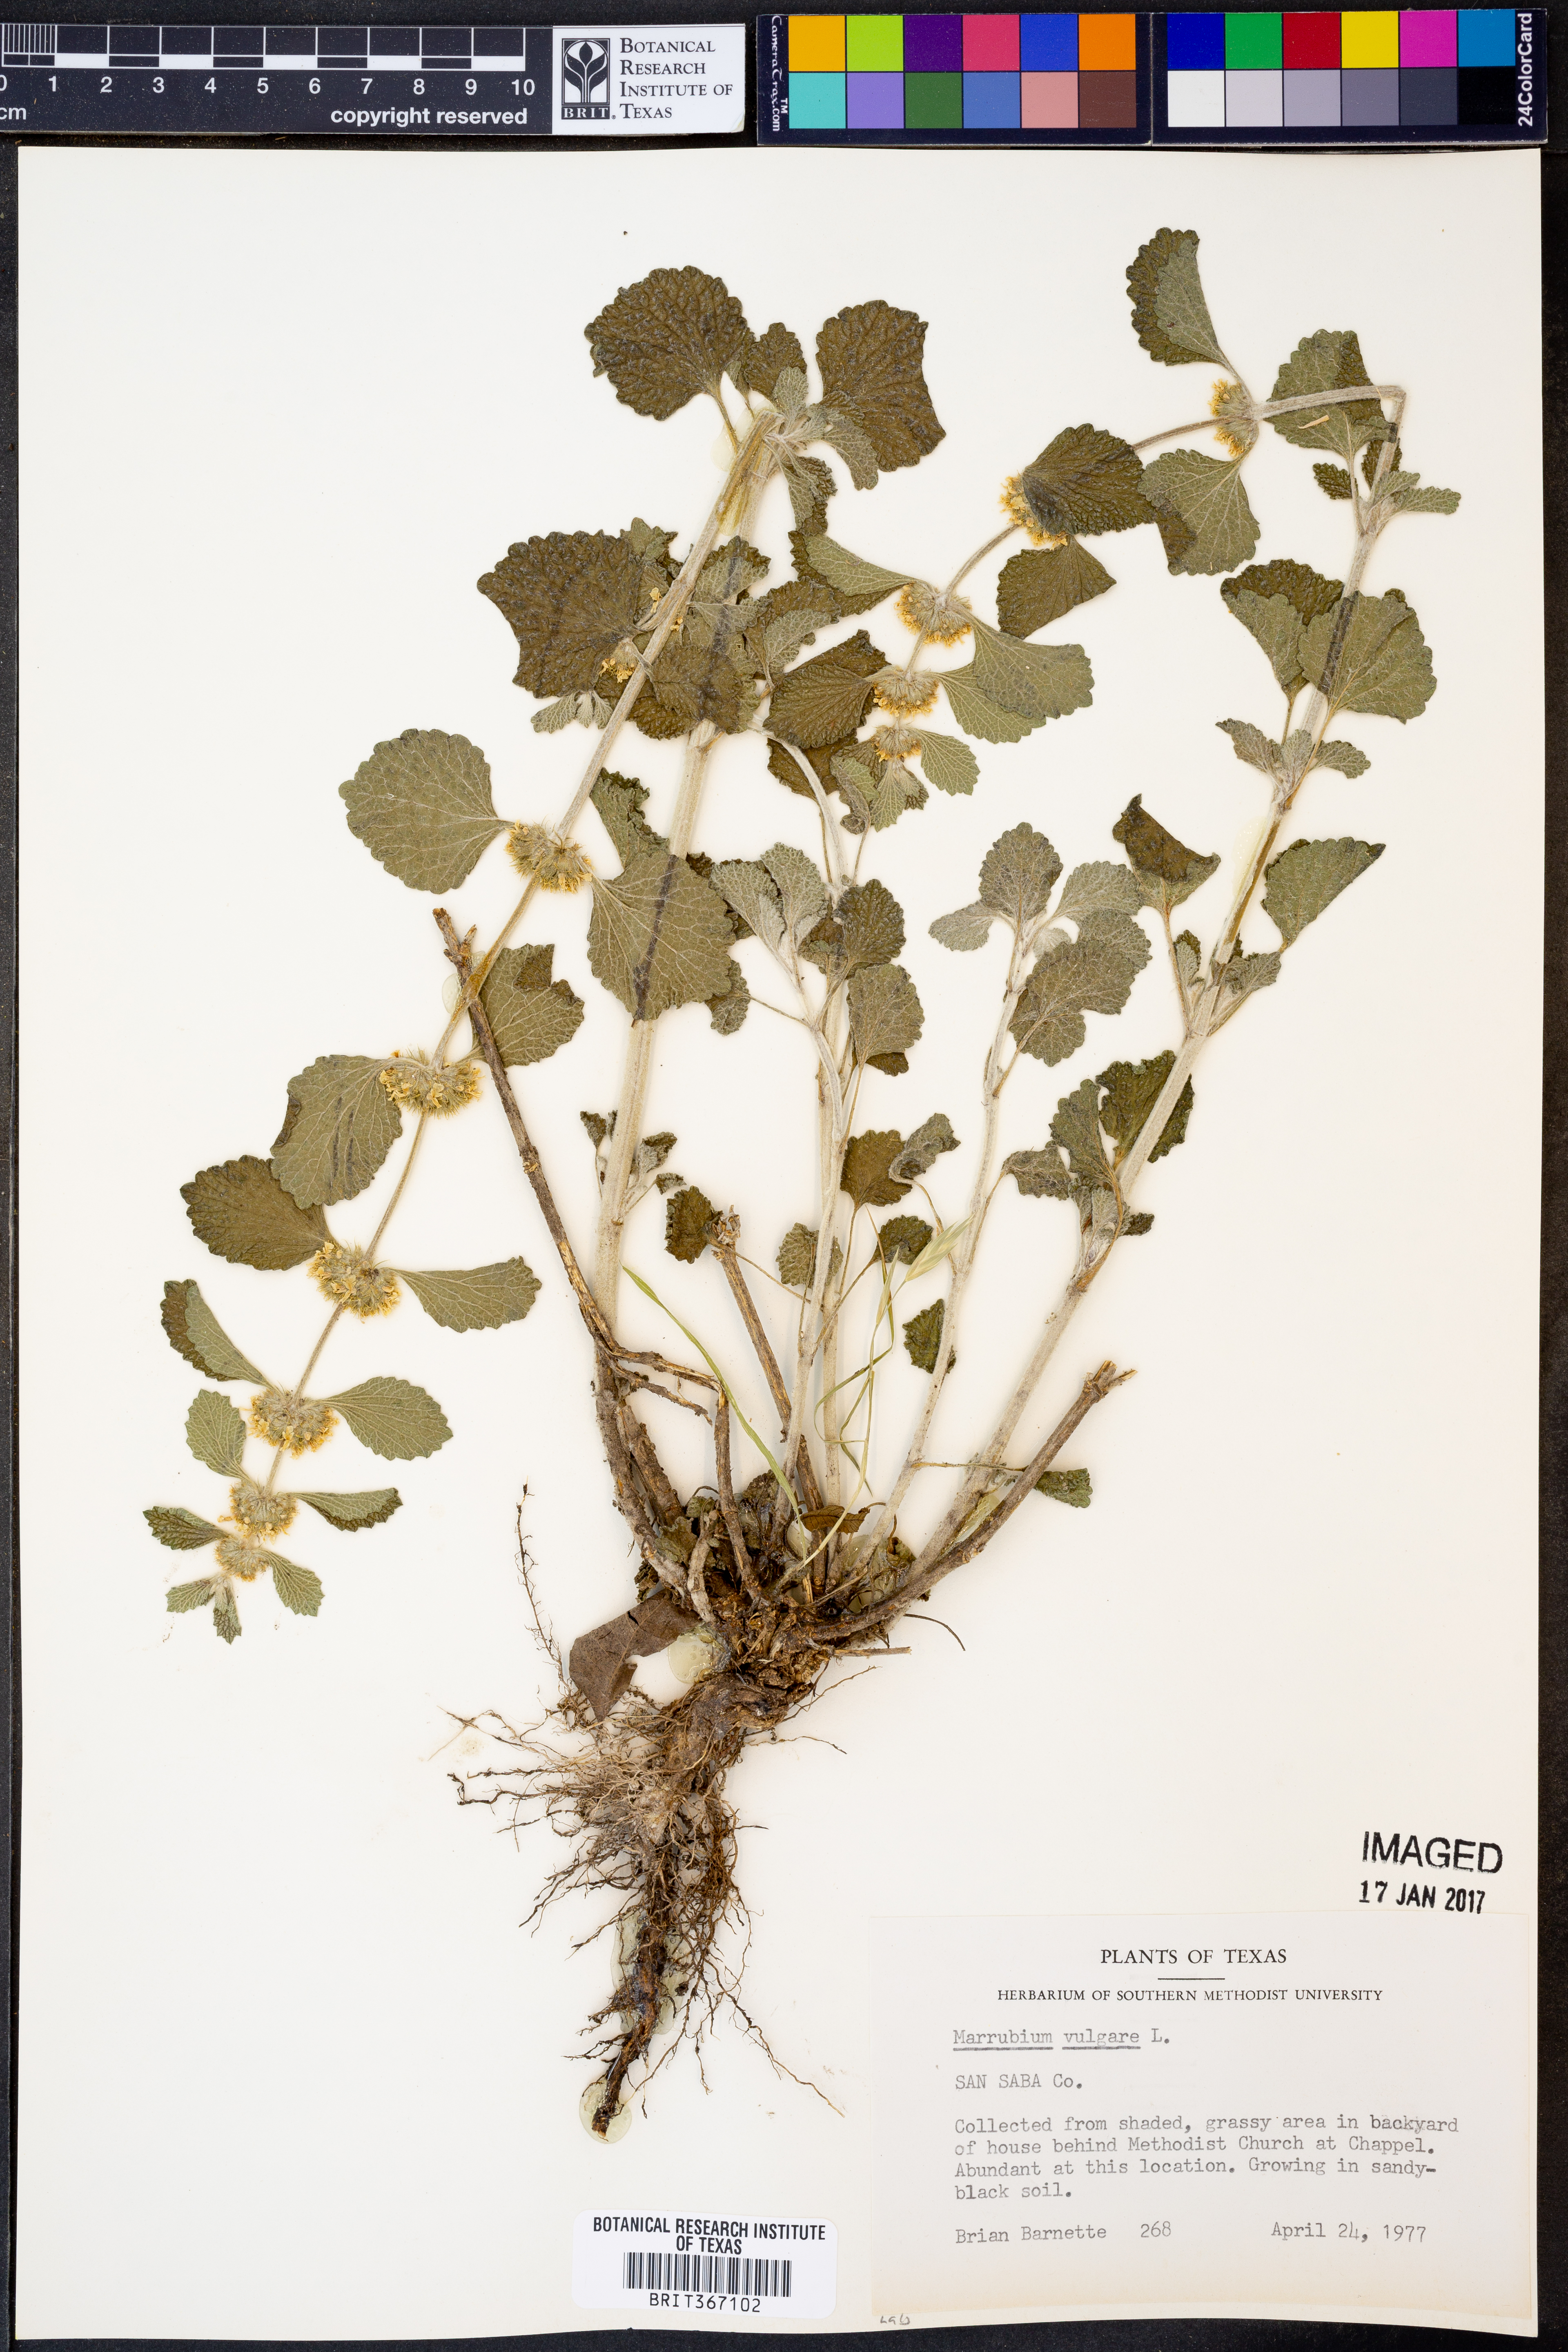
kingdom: Plantae
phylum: Tracheophyta
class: Magnoliopsida
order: Lamiales
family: Lamiaceae
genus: Marrubium
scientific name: Marrubium vulgare
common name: Horehound
